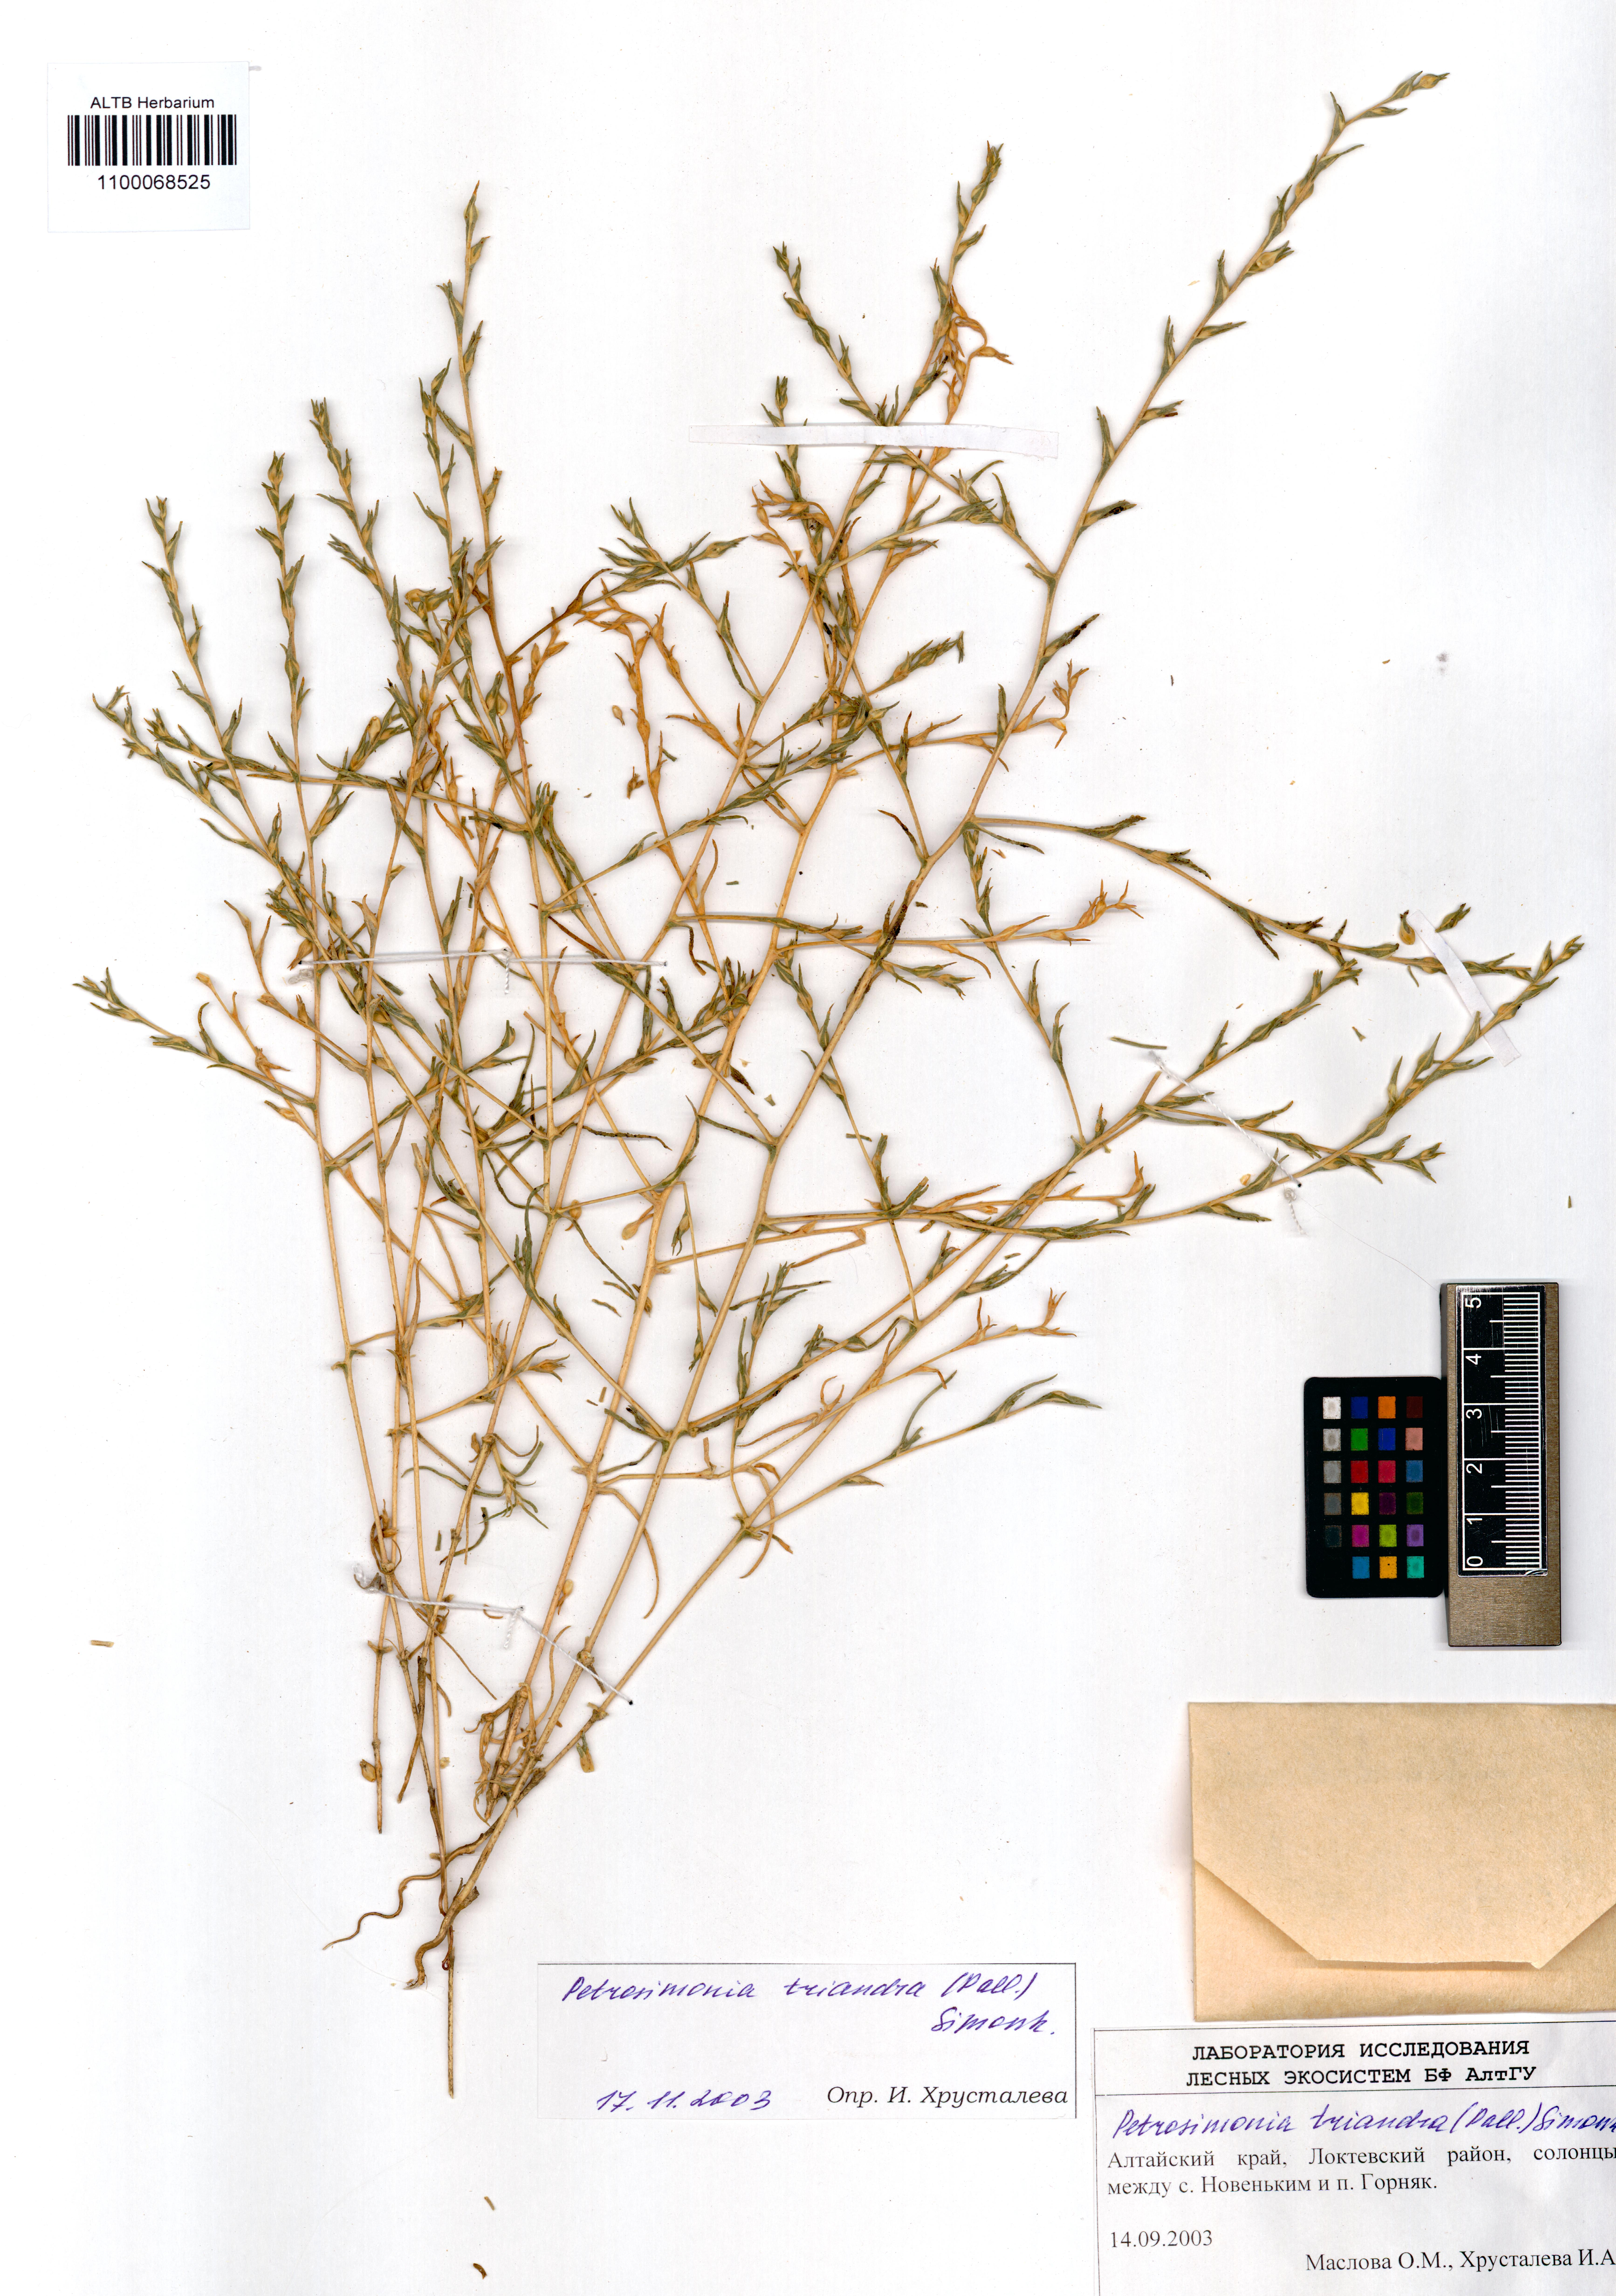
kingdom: Plantae
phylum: Tracheophyta
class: Magnoliopsida
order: Caryophyllales
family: Amaranthaceae
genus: Petrosimonia
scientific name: Petrosimonia triandra
